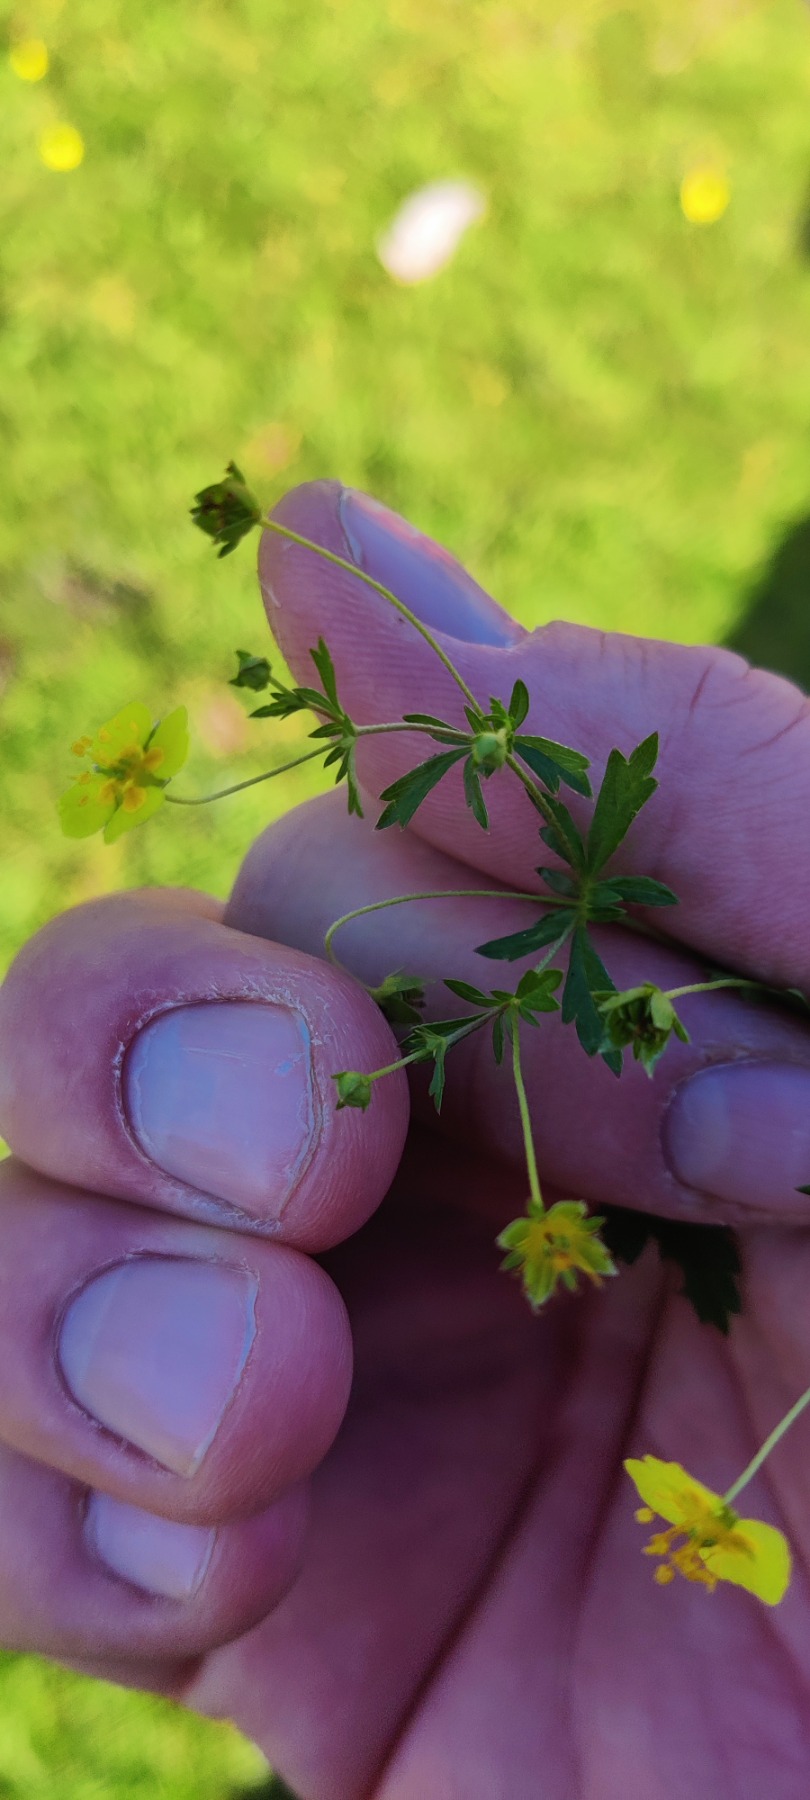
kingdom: Plantae
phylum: Tracheophyta
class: Magnoliopsida
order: Rosales
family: Rosaceae
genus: Potentilla
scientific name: Potentilla erecta
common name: Tormentil
